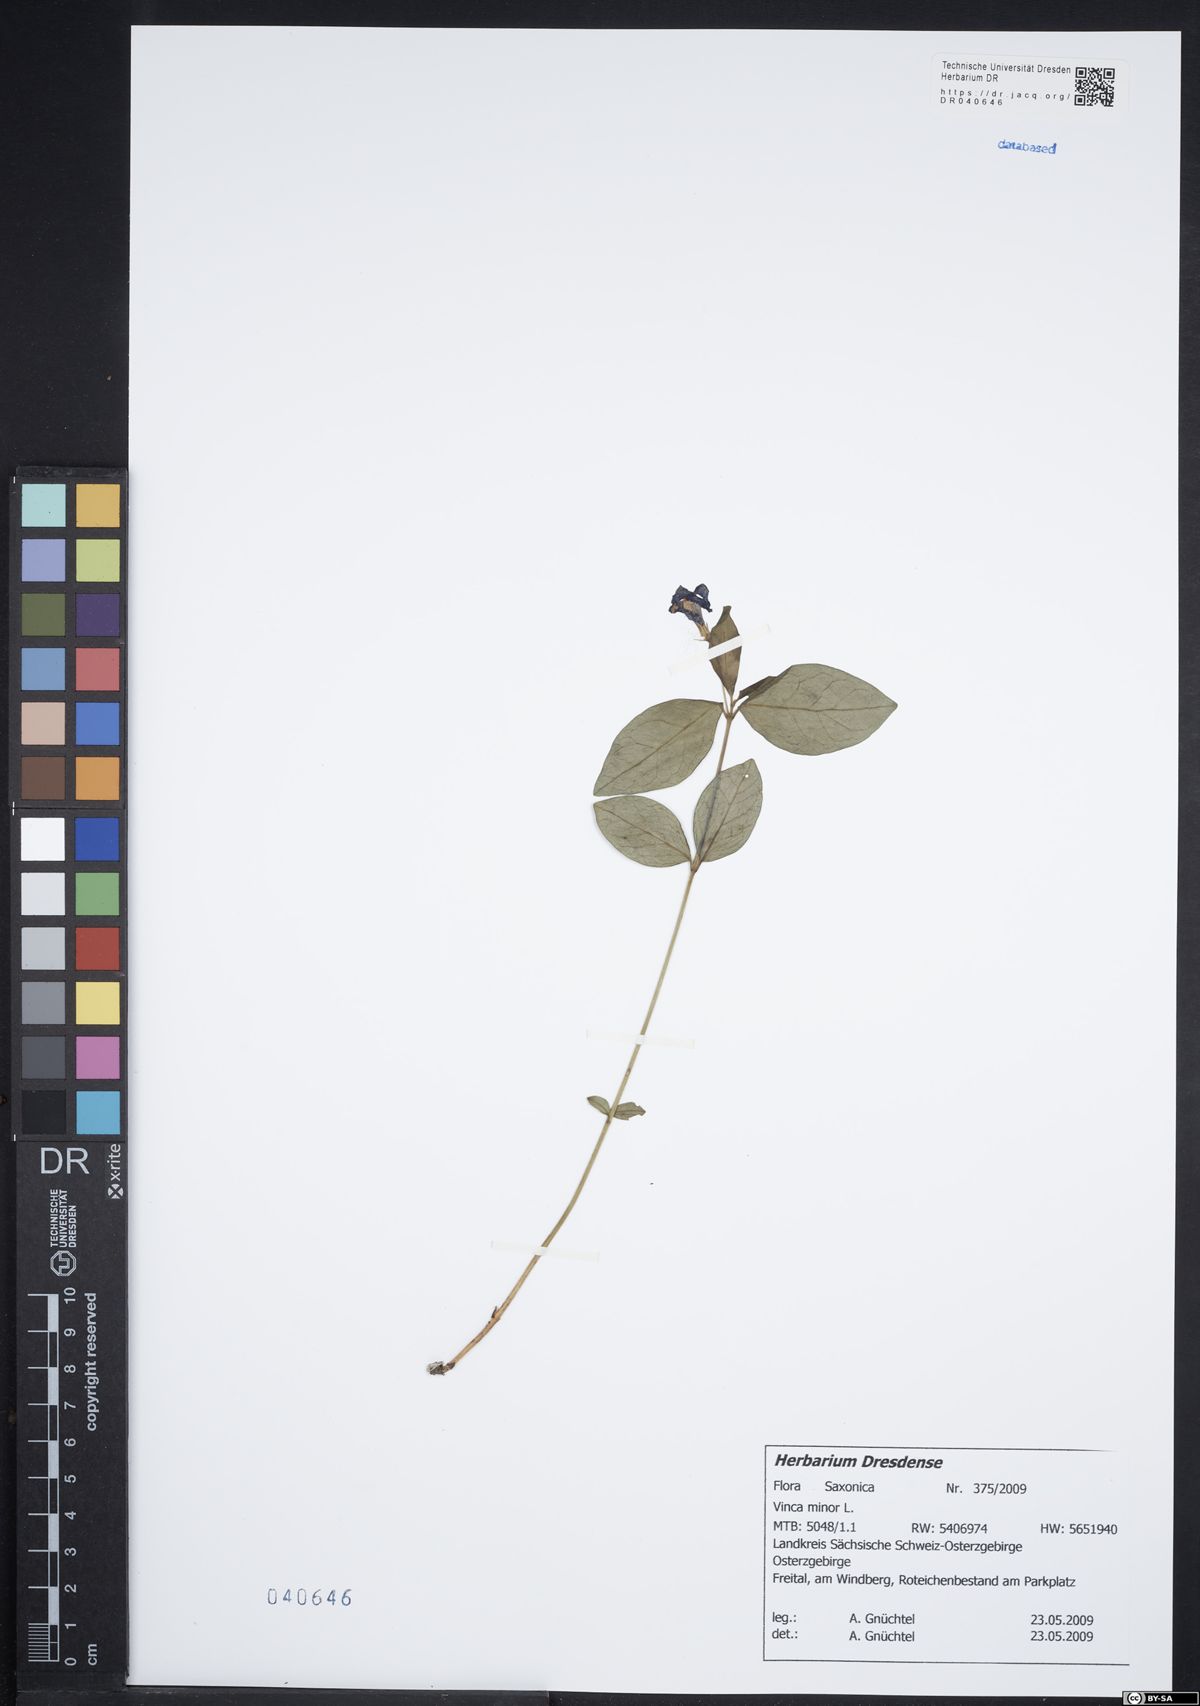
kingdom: Plantae
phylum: Tracheophyta
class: Magnoliopsida
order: Gentianales
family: Apocynaceae
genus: Vinca
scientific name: Vinca minor
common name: Lesser periwinkle
